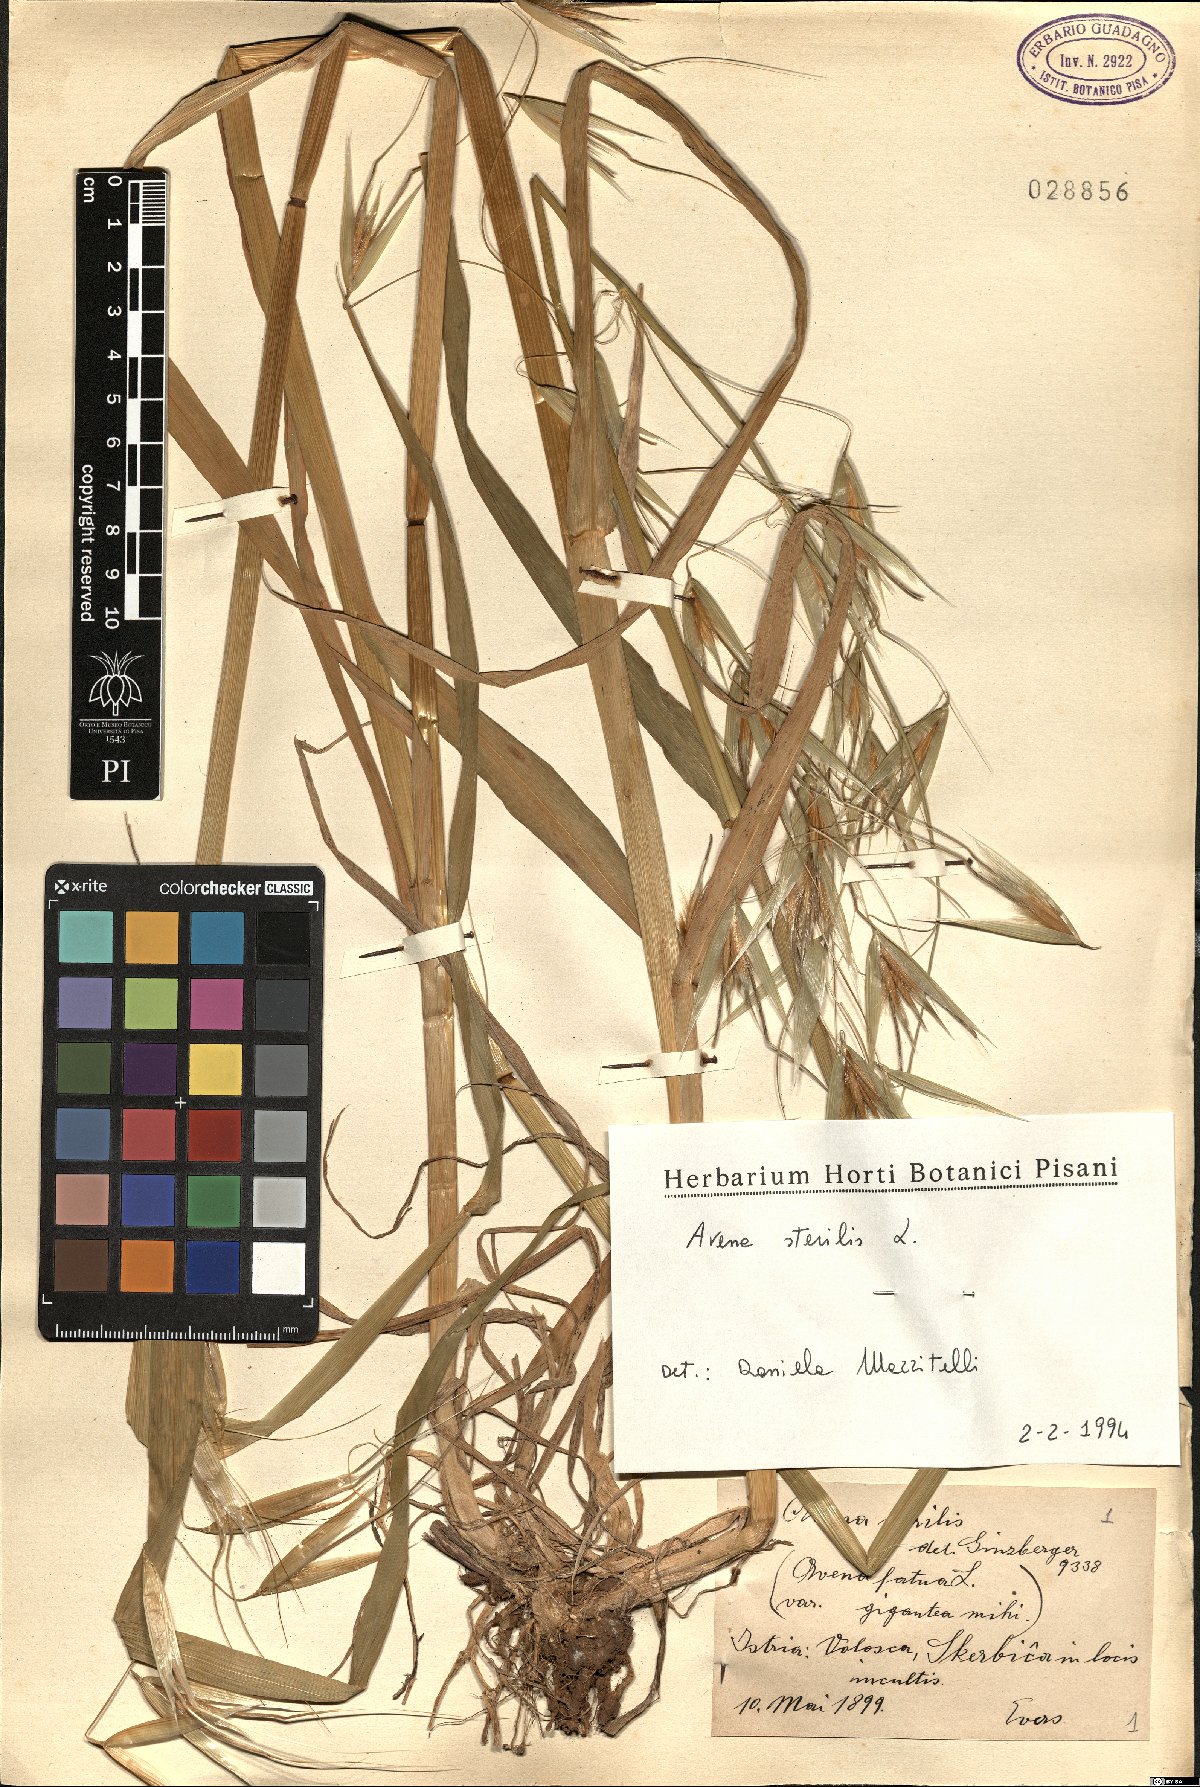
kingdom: Plantae
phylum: Tracheophyta
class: Liliopsida
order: Poales
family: Poaceae
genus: Avena
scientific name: Avena sterilis
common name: Animated oat
